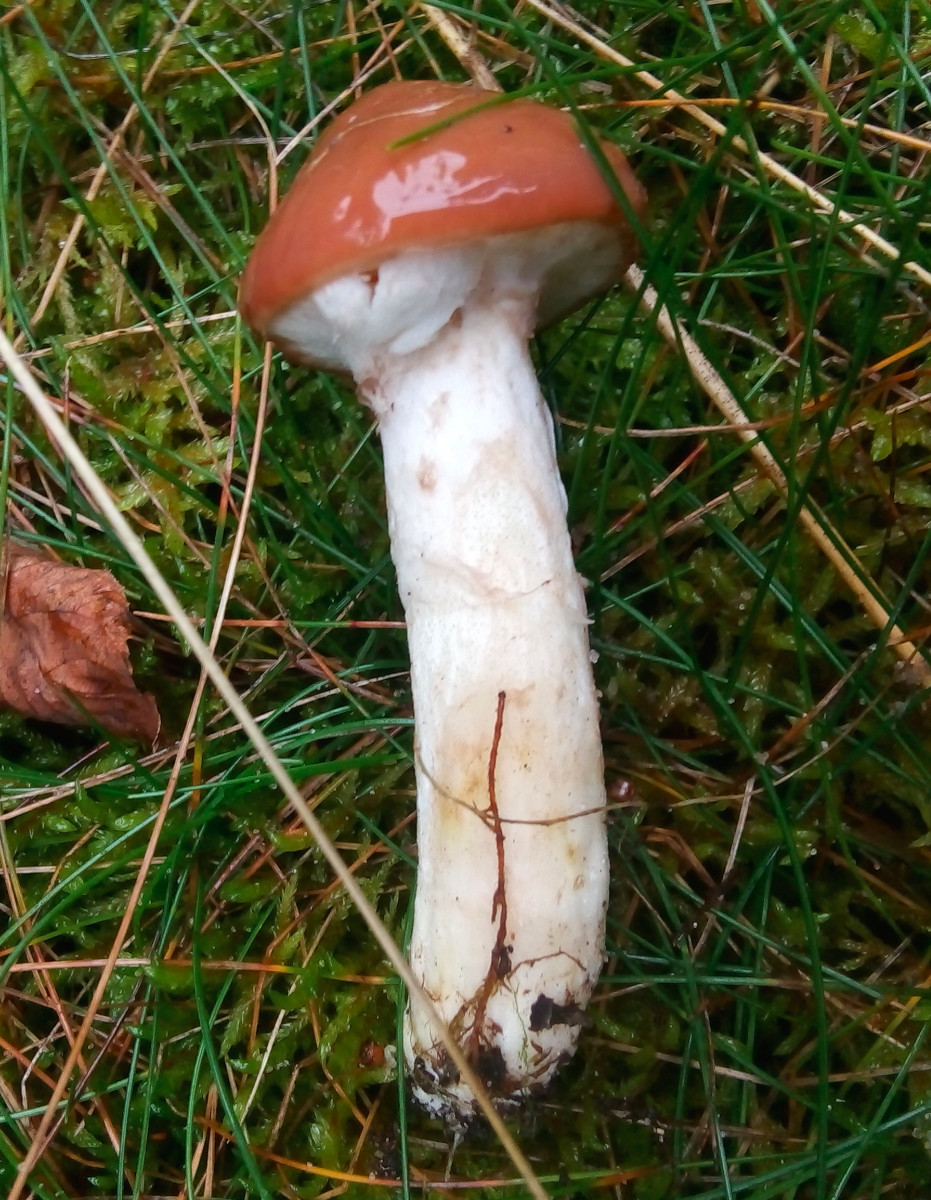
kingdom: Fungi
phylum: Basidiomycota
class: Agaricomycetes
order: Boletales
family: Suillaceae
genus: Suillus
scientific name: Suillus luteus
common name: brungul slimrørhat
